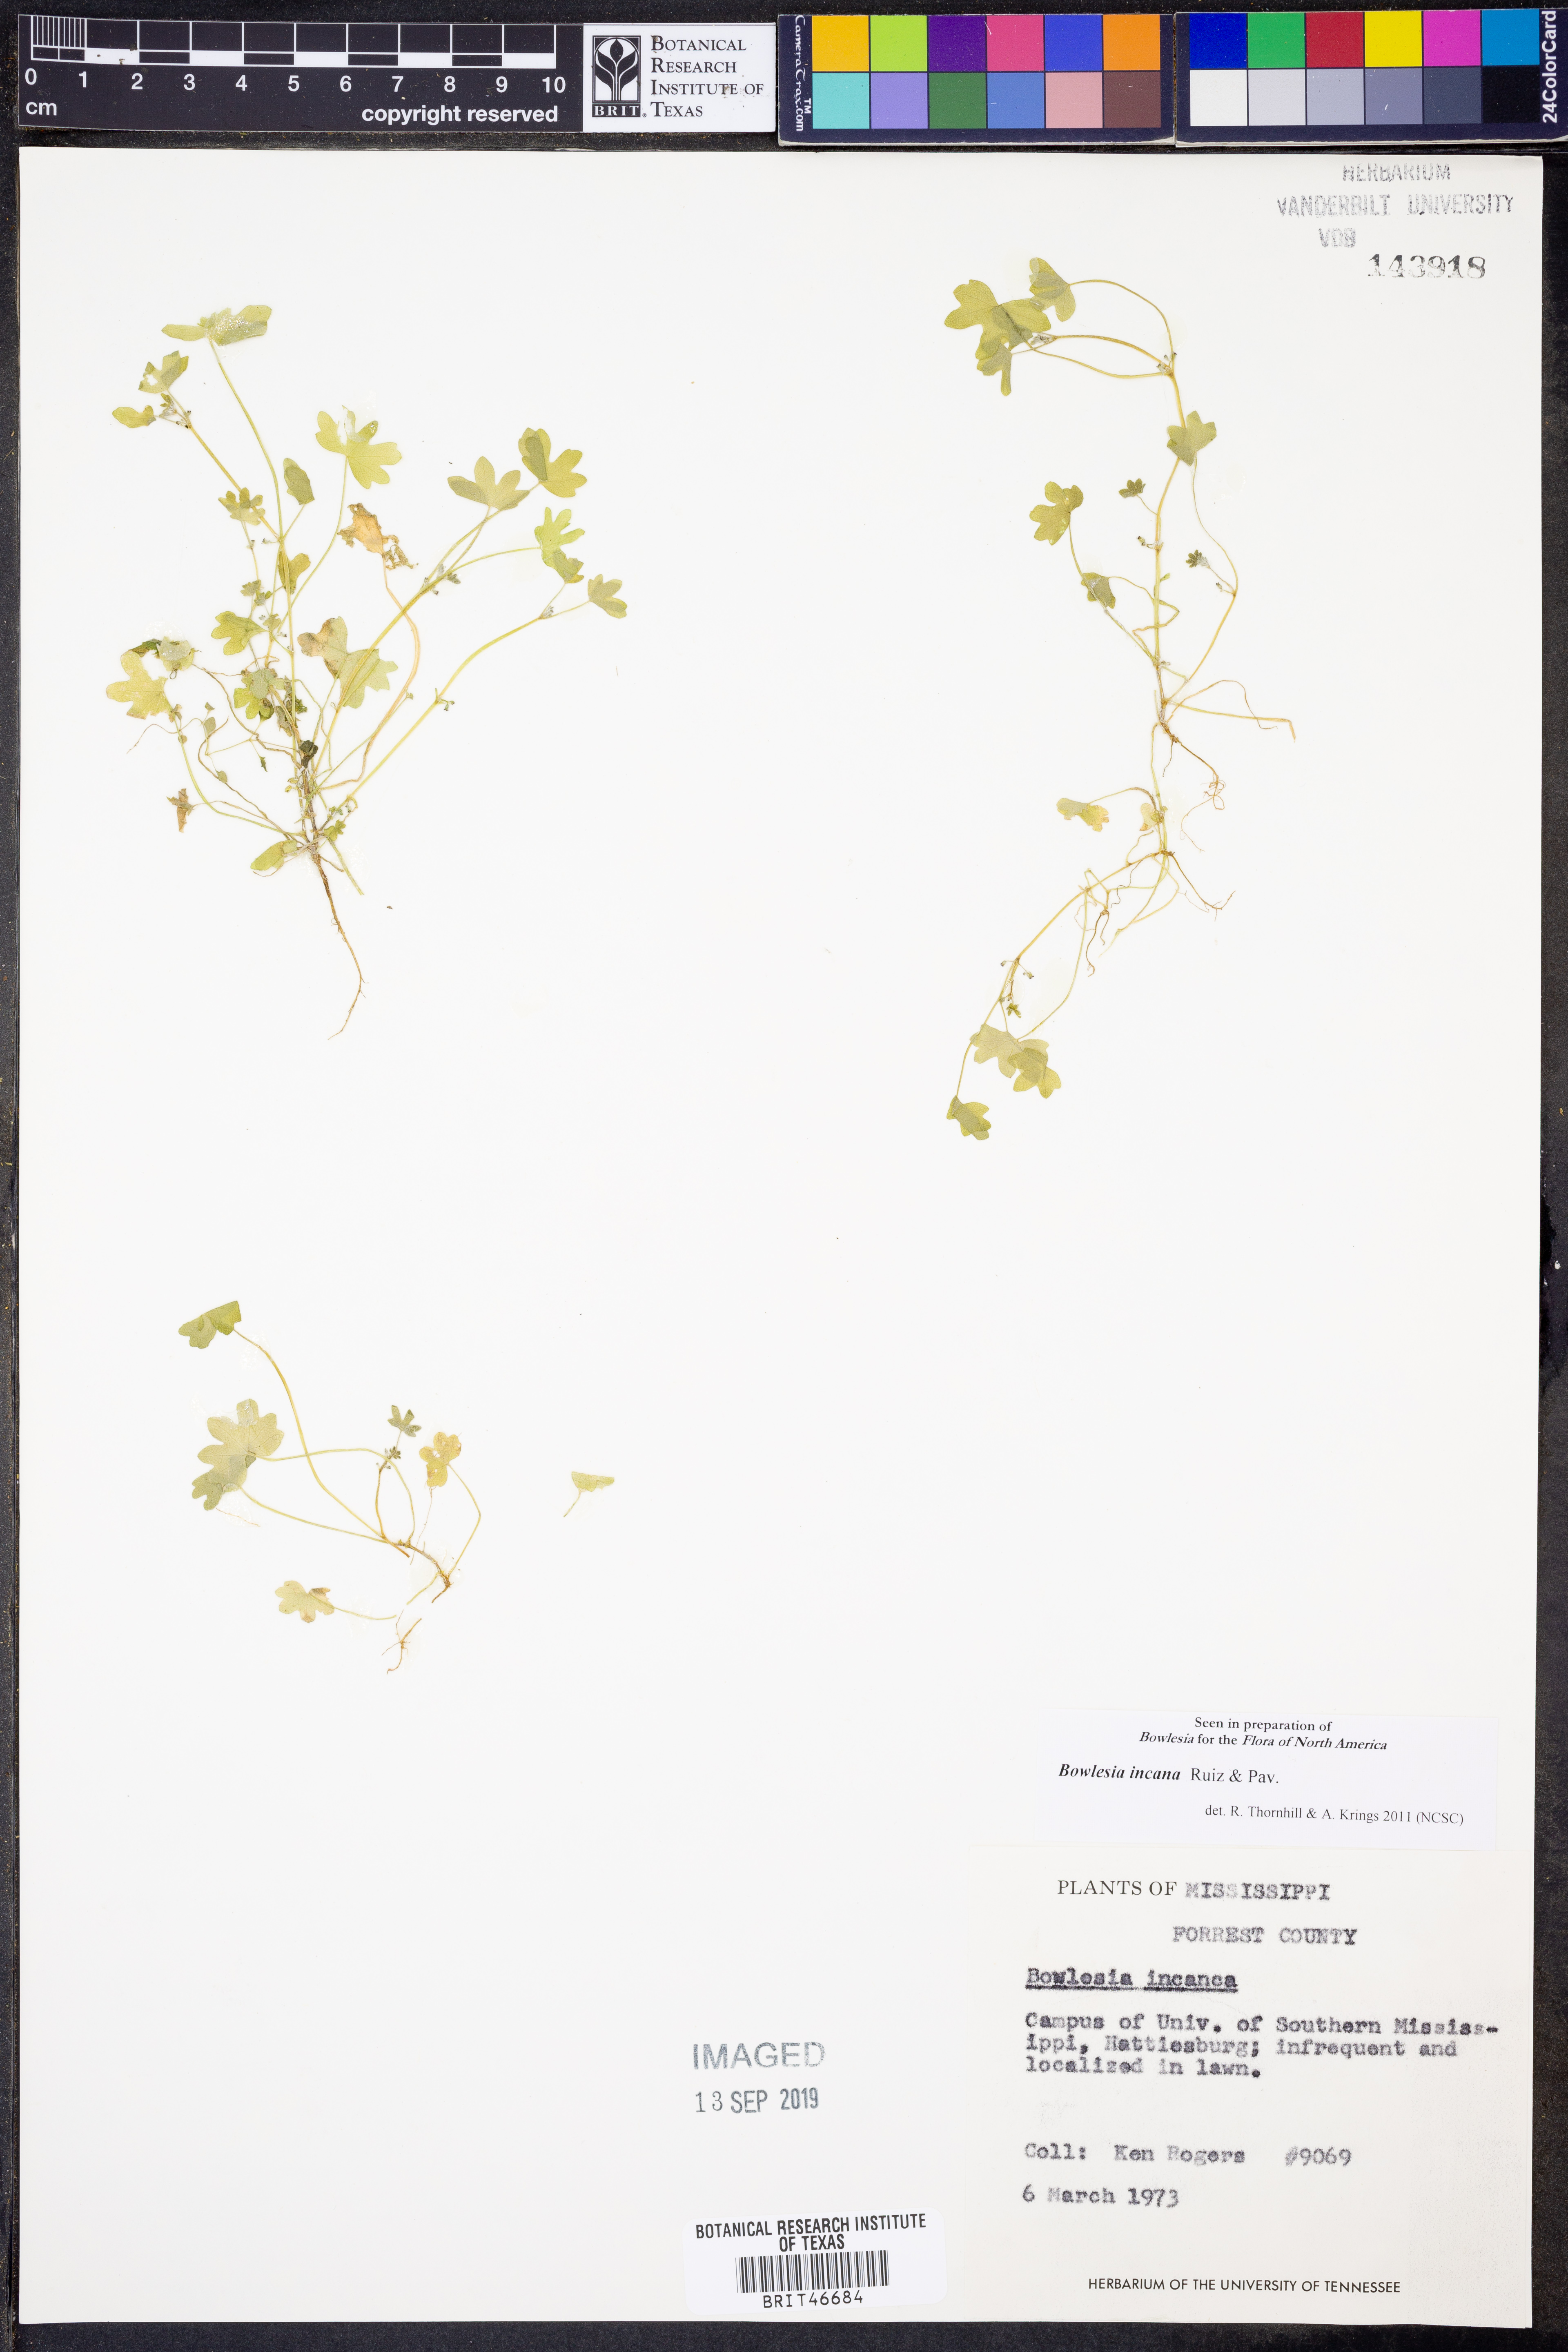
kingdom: Plantae
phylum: Tracheophyta
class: Magnoliopsida
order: Apiales
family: Apiaceae
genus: Bowlesia
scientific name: Bowlesia incana
